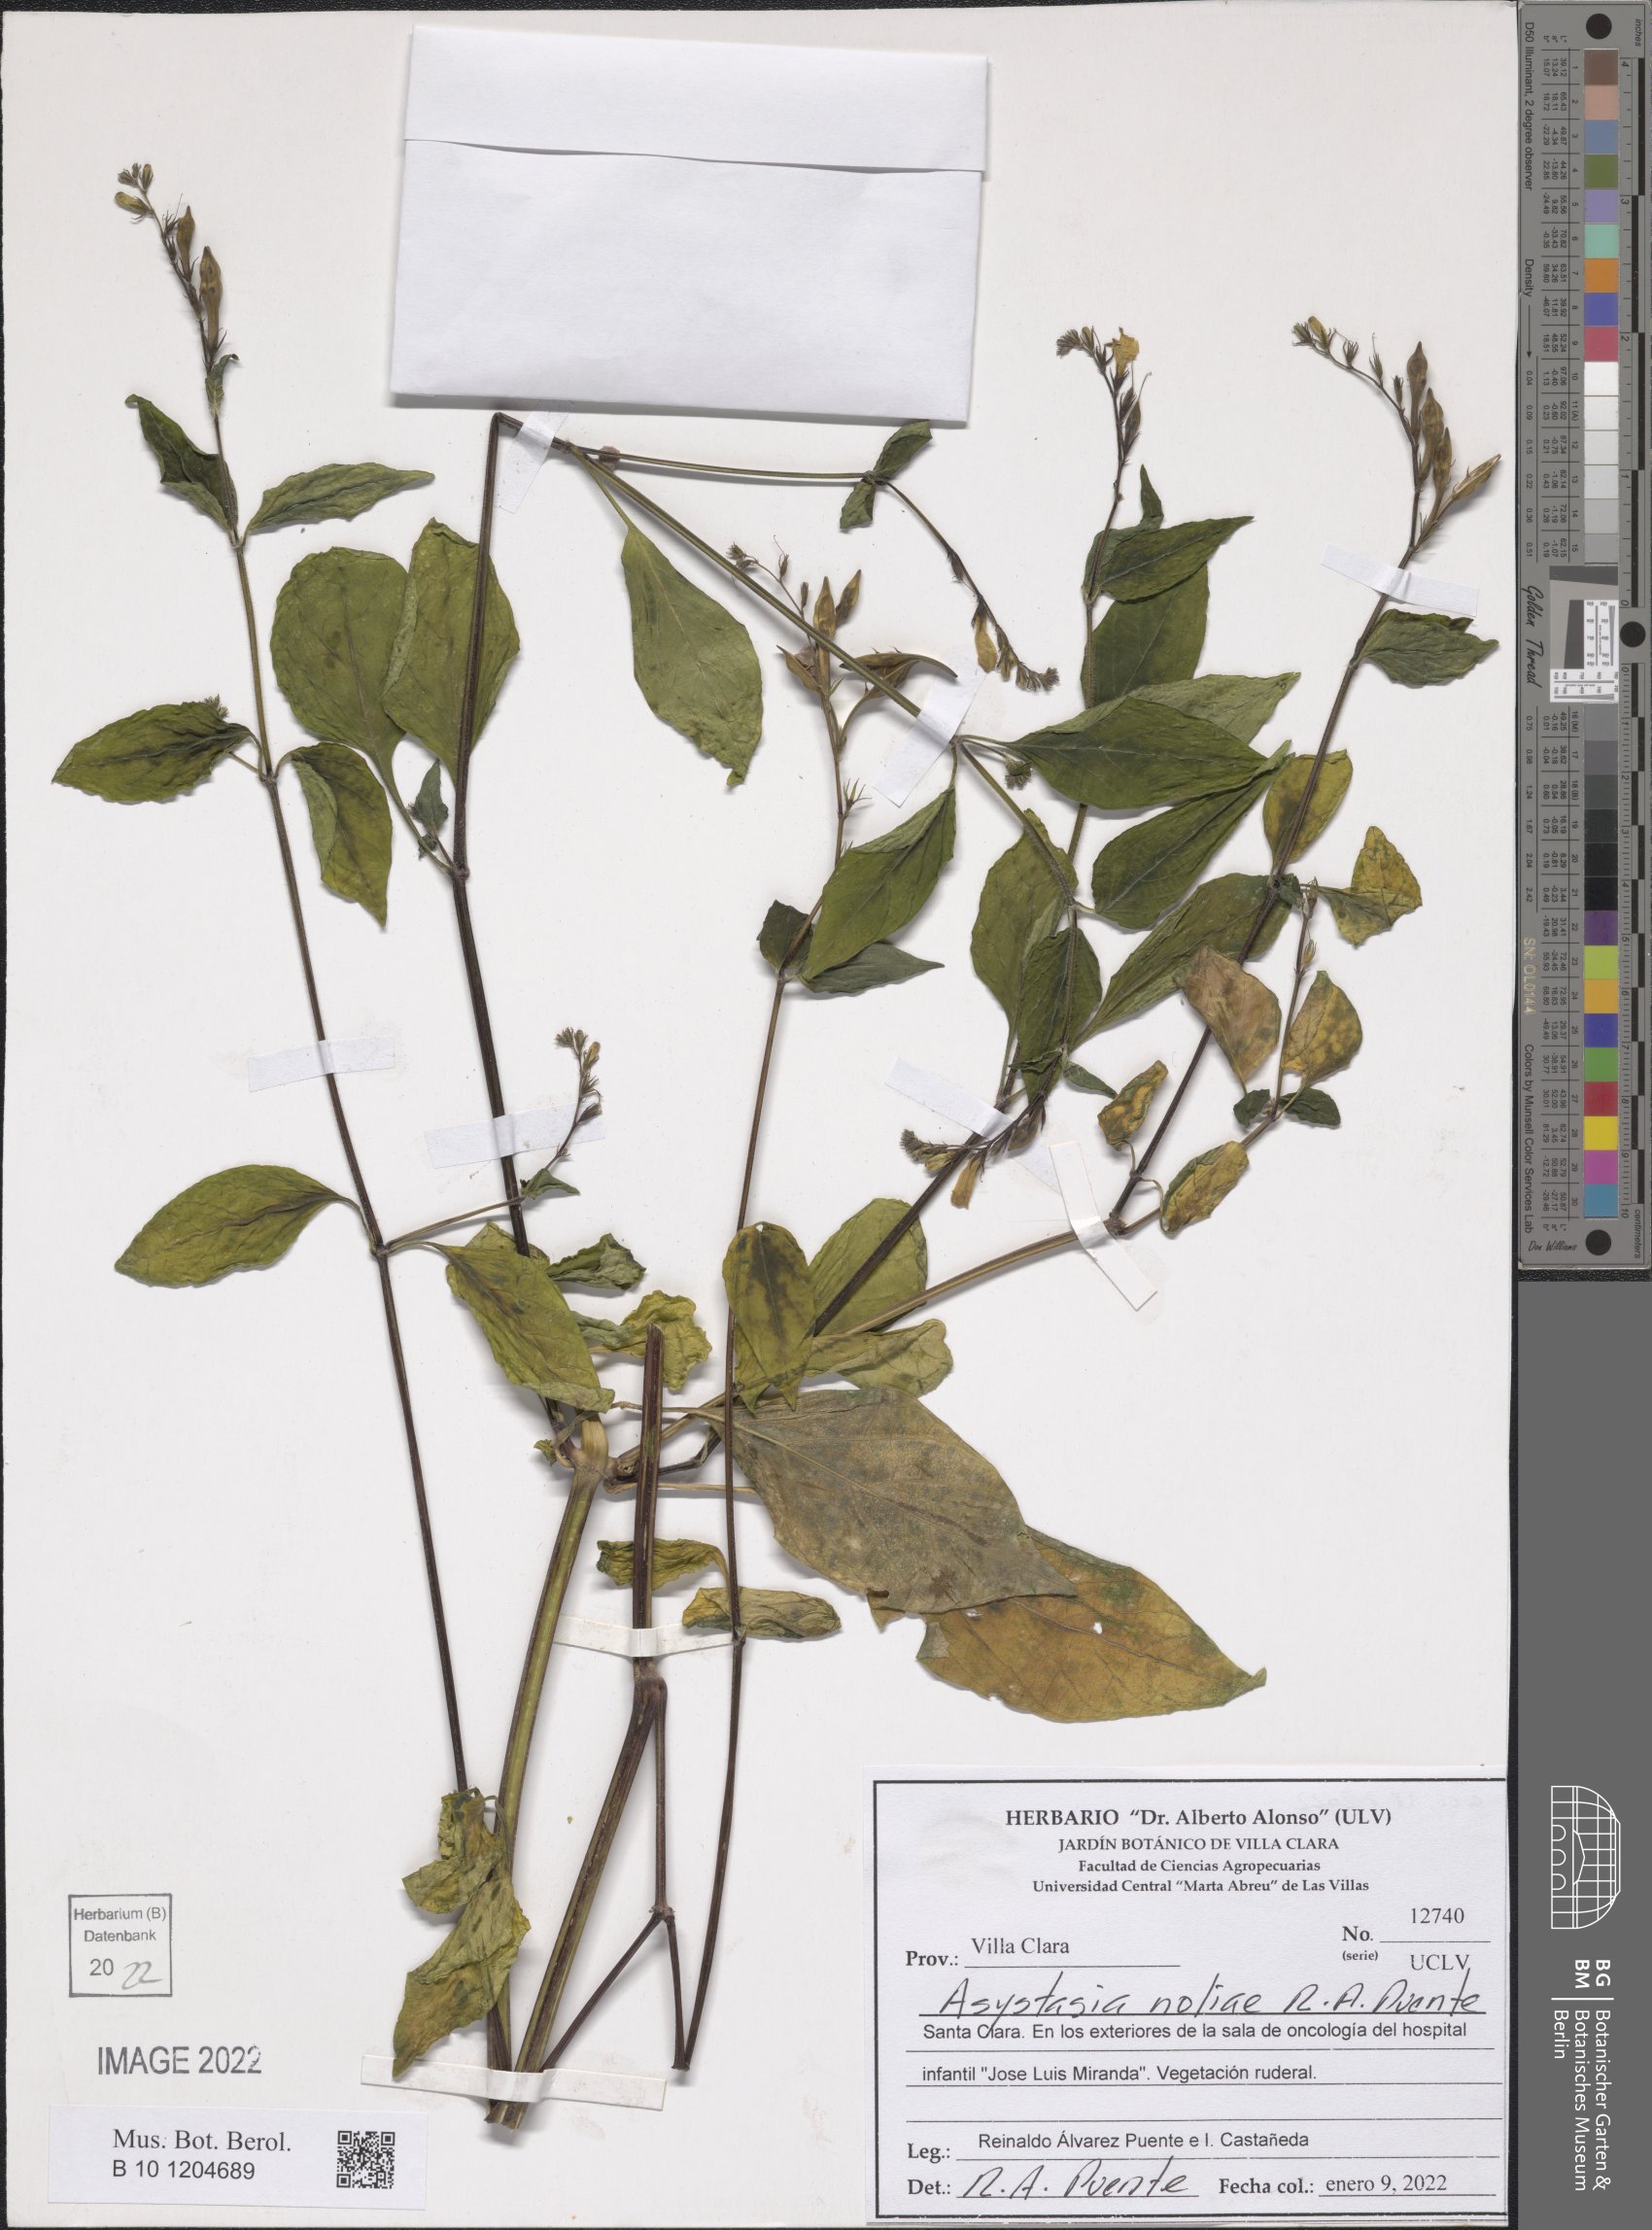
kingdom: Plantae
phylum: Tracheophyta
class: Magnoliopsida
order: Lamiales
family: Acanthaceae
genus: Asystasia
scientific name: Asystasia noliae
